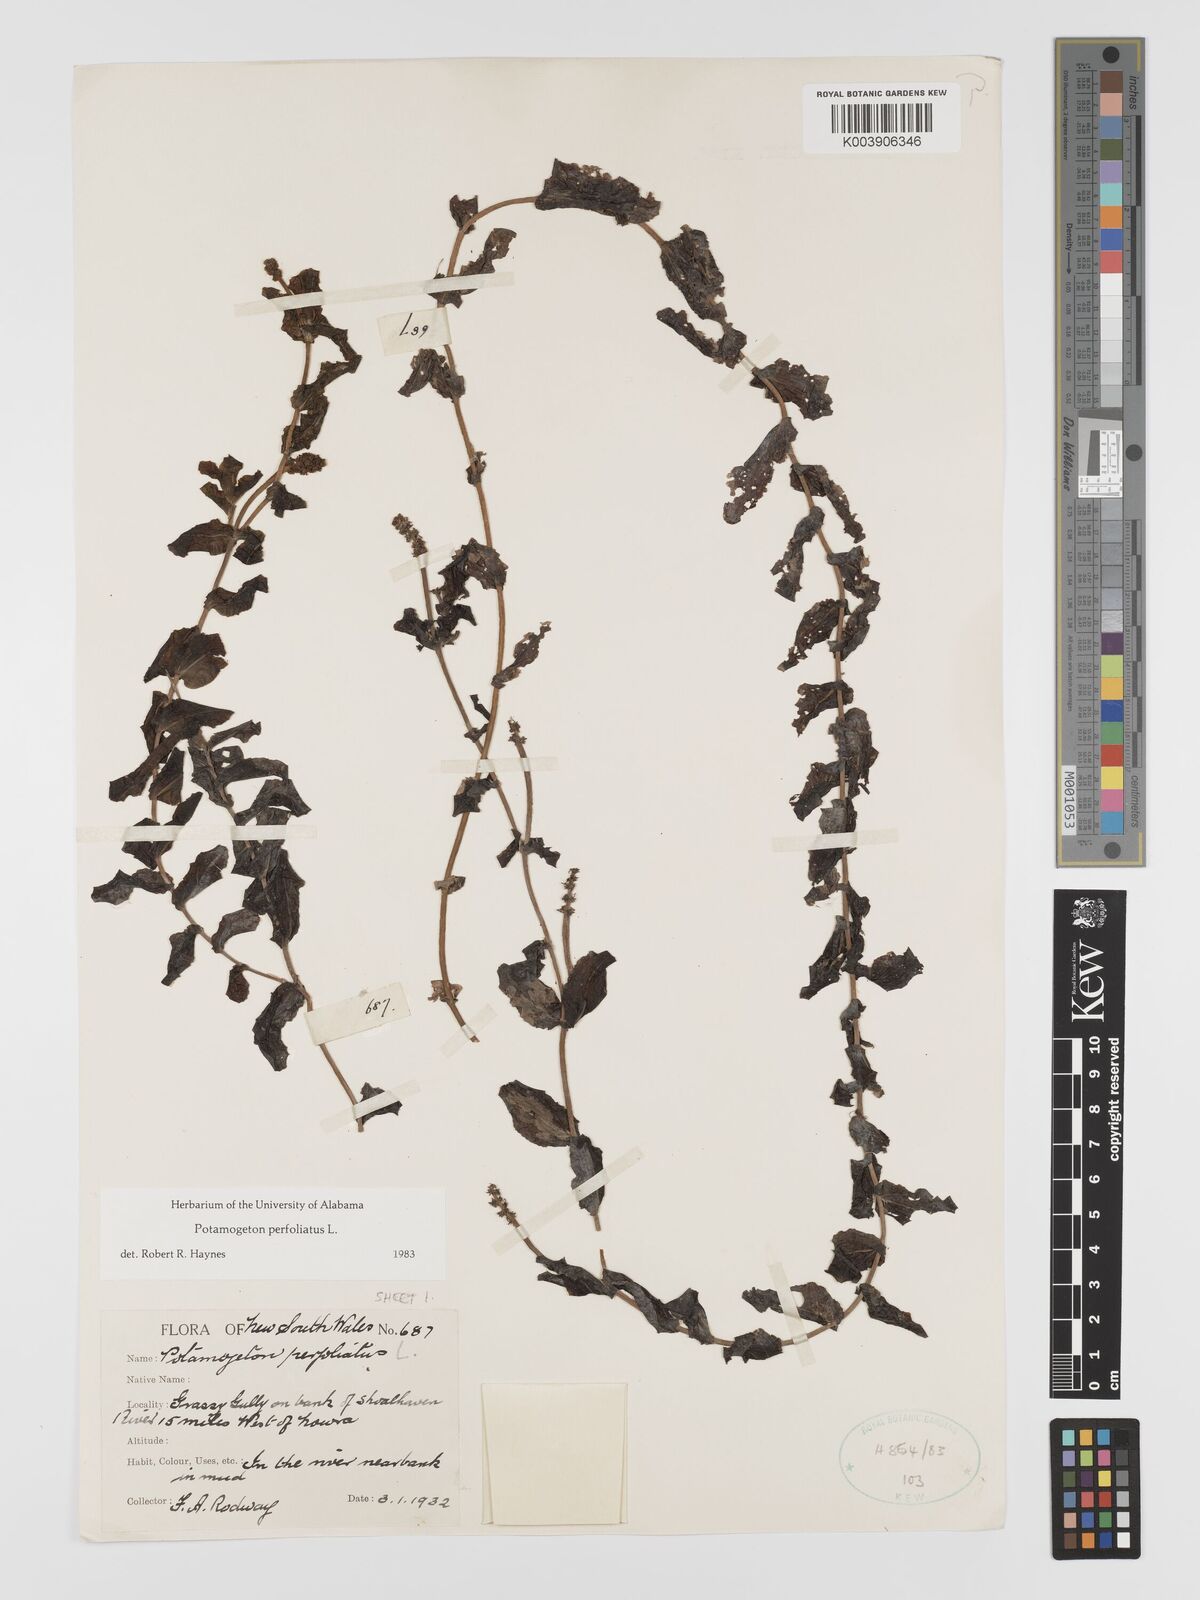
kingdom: Plantae
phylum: Tracheophyta
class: Liliopsida
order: Alismatales
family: Potamogetonaceae
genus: Potamogeton
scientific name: Potamogeton perfoliatus
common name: Perfoliate pondweed
